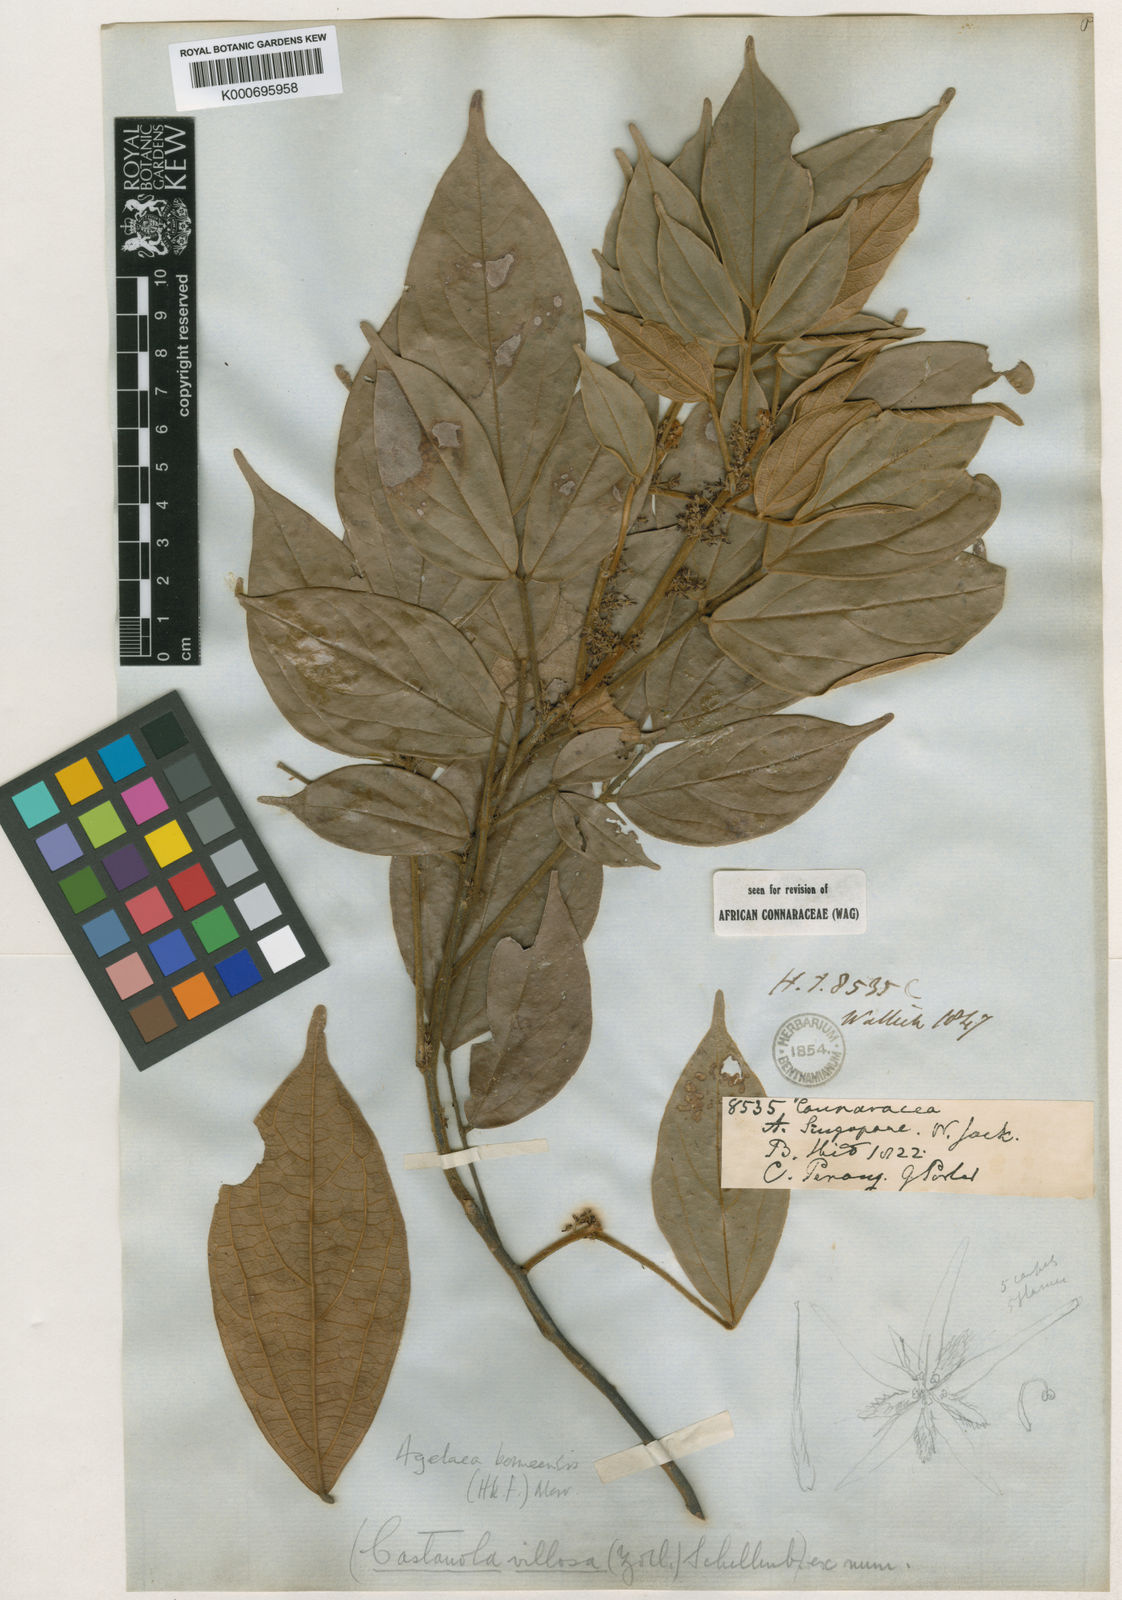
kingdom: Plantae
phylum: Tracheophyta
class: Magnoliopsida
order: Oxalidales
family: Connaraceae
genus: Agelaea
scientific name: Agelaea borneensis
